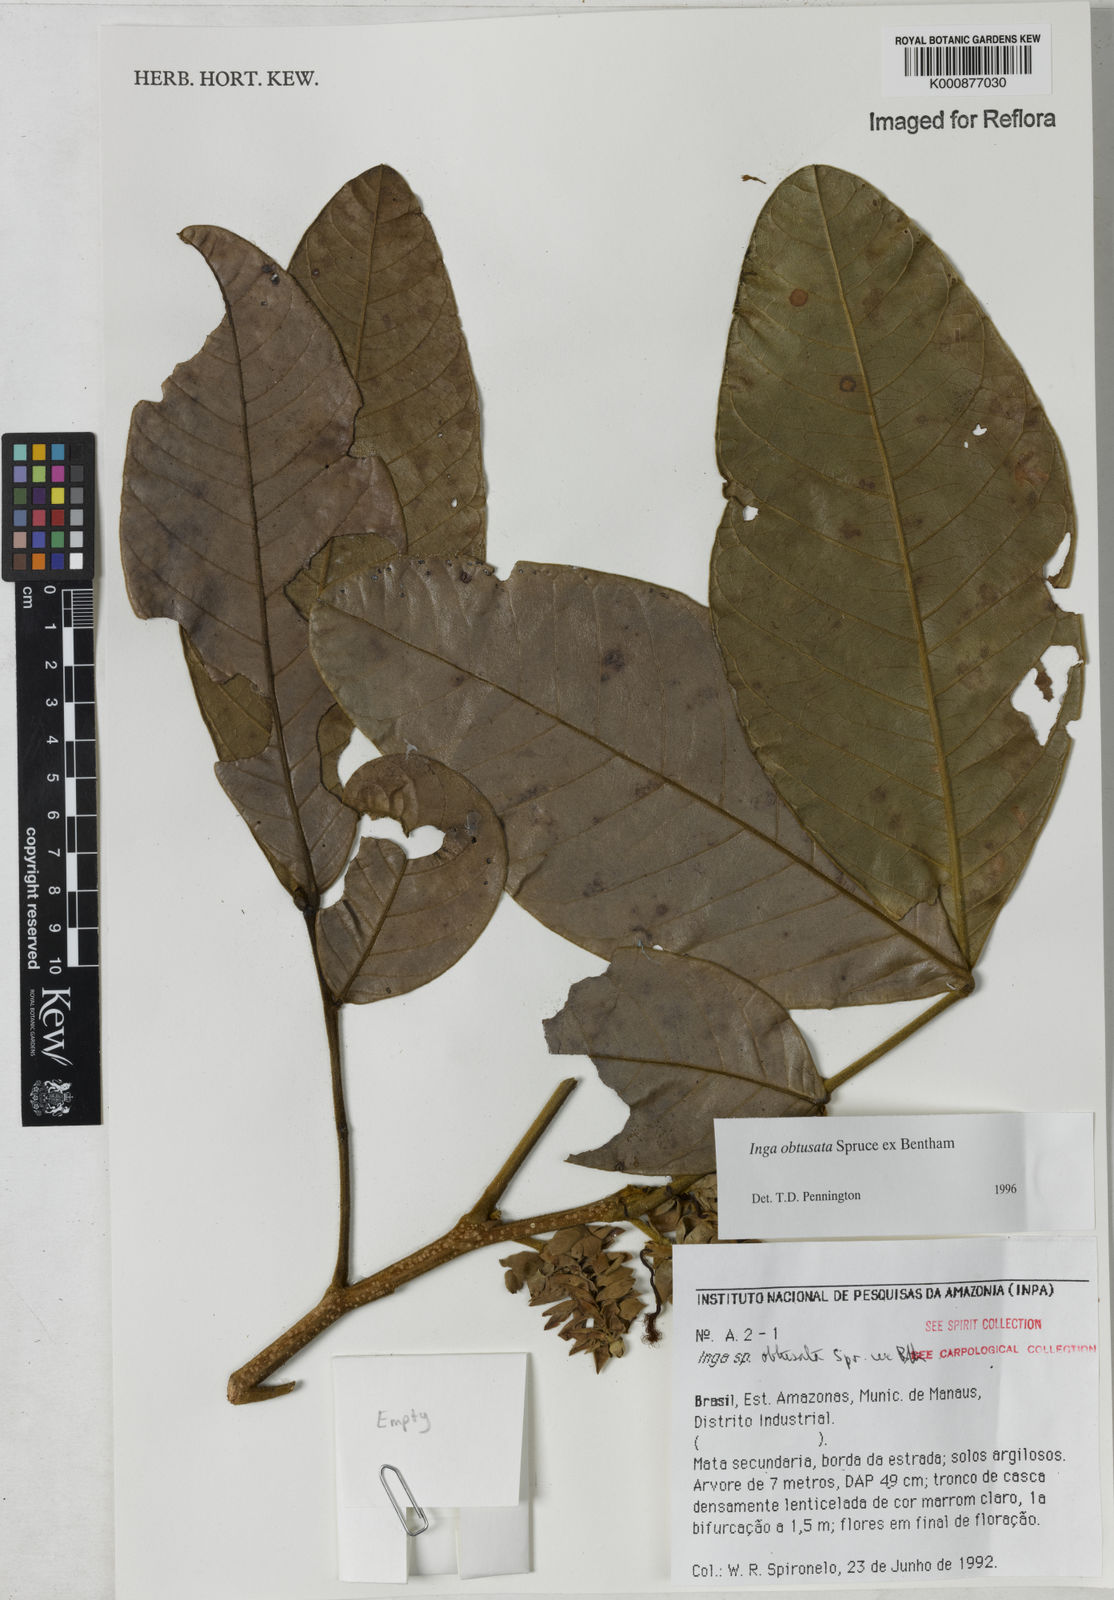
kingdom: Plantae
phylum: Tracheophyta
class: Magnoliopsida
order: Fabales
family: Fabaceae
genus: Inga
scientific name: Inga obtusata
